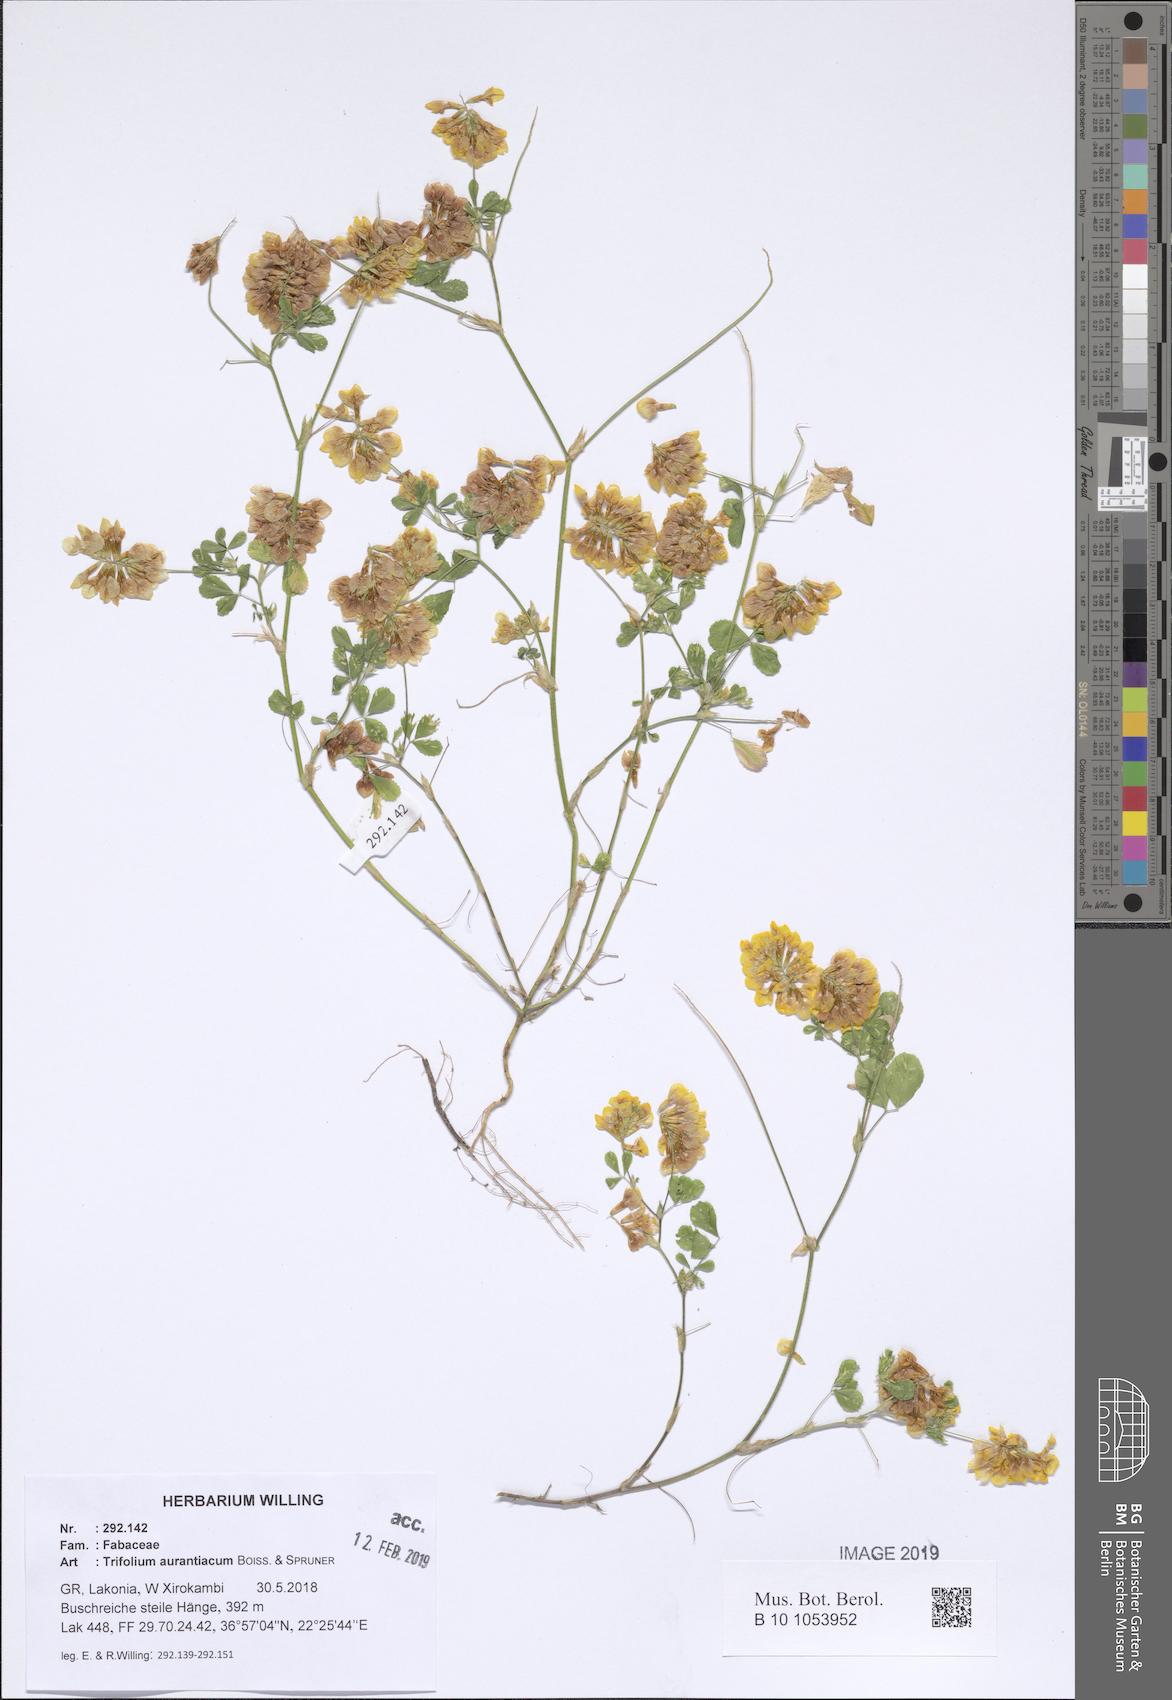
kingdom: Plantae
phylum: Tracheophyta
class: Magnoliopsida
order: Fabales
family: Fabaceae
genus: Trifolium
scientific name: Trifolium aurantiacum
